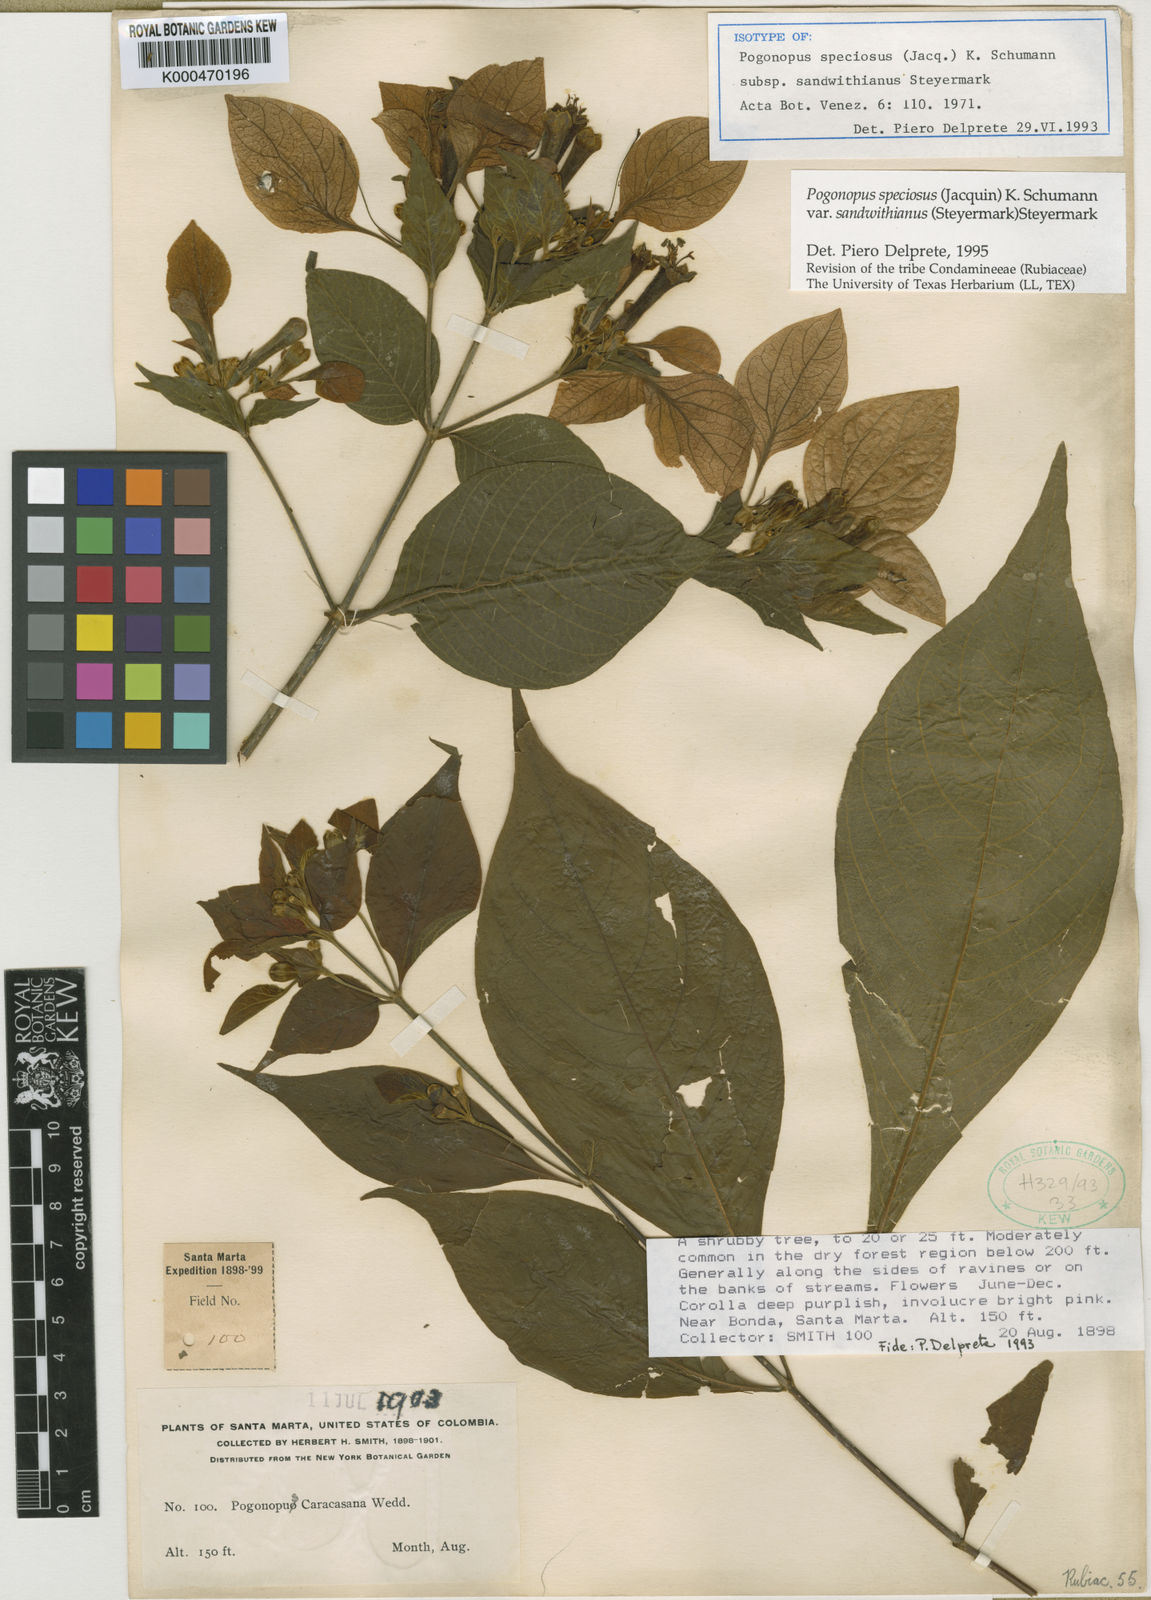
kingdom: Plantae
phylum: Tracheophyta
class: Magnoliopsida
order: Gentianales
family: Rubiaceae
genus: Pogonopus
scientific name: Pogonopus speciosus
